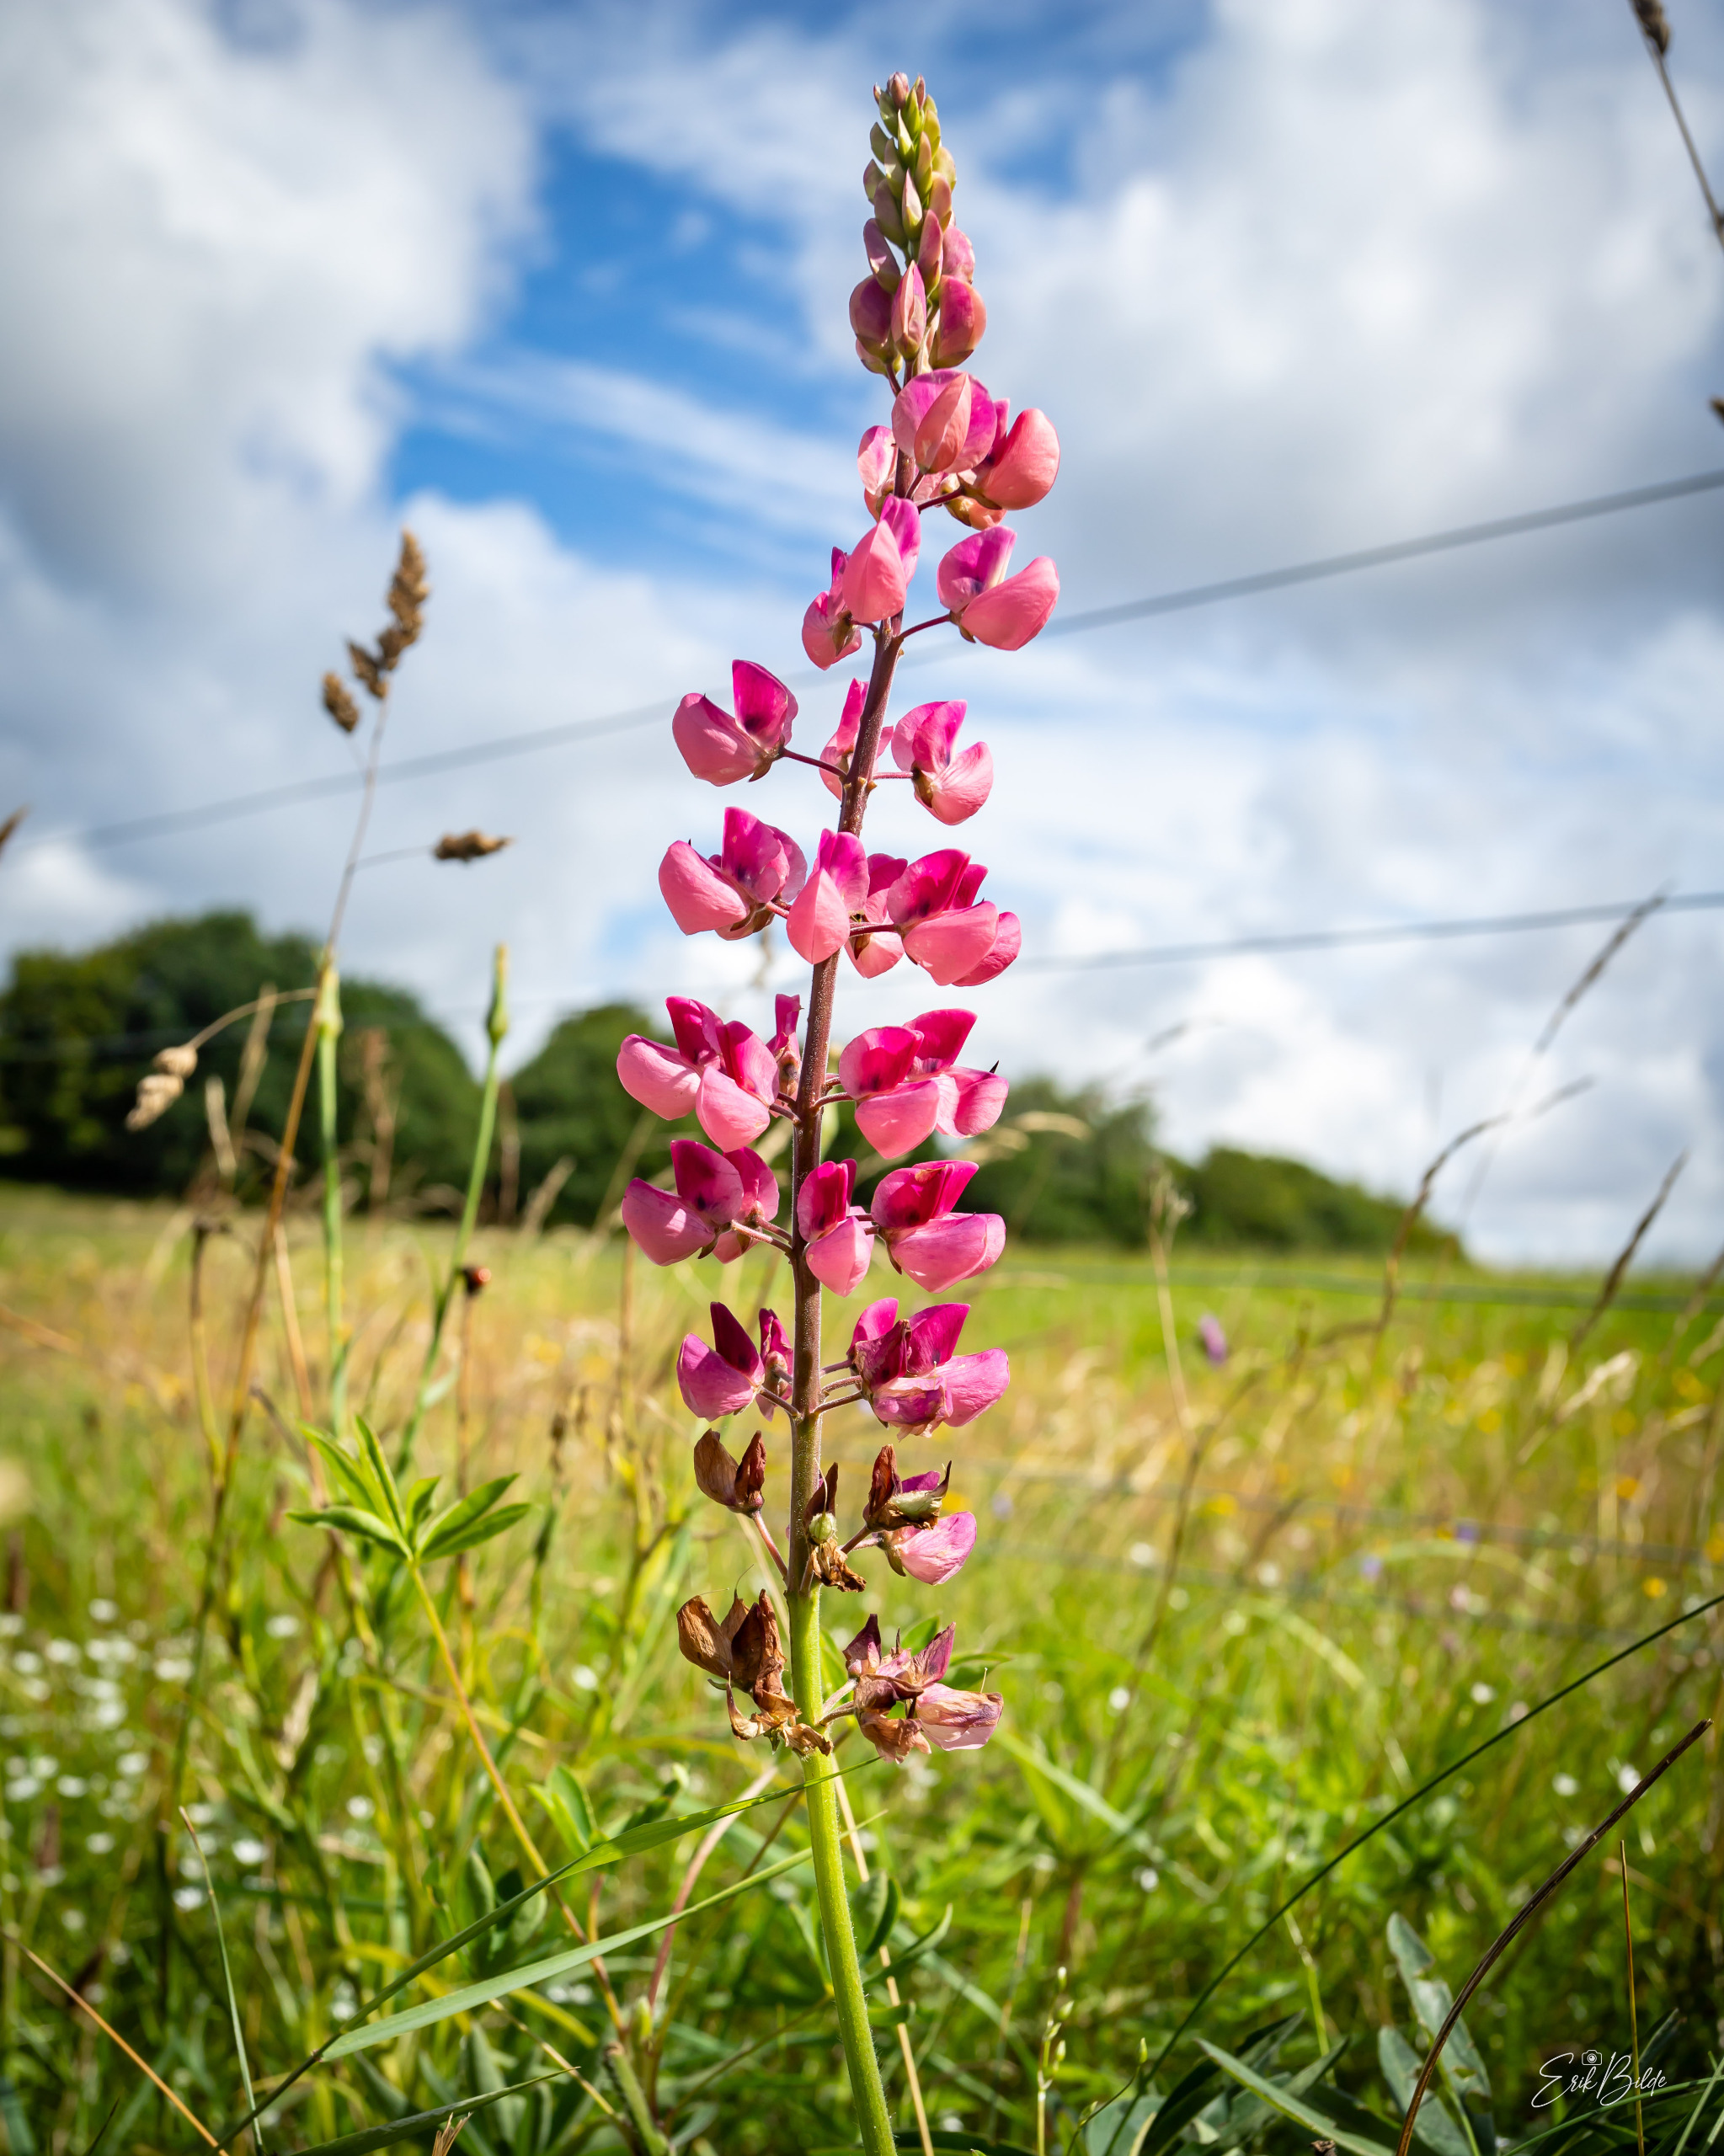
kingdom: Plantae
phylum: Tracheophyta
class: Magnoliopsida
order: Fabales
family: Fabaceae
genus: Lupinus
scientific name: Lupinus polyphyllus
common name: Mangebladet lupin
